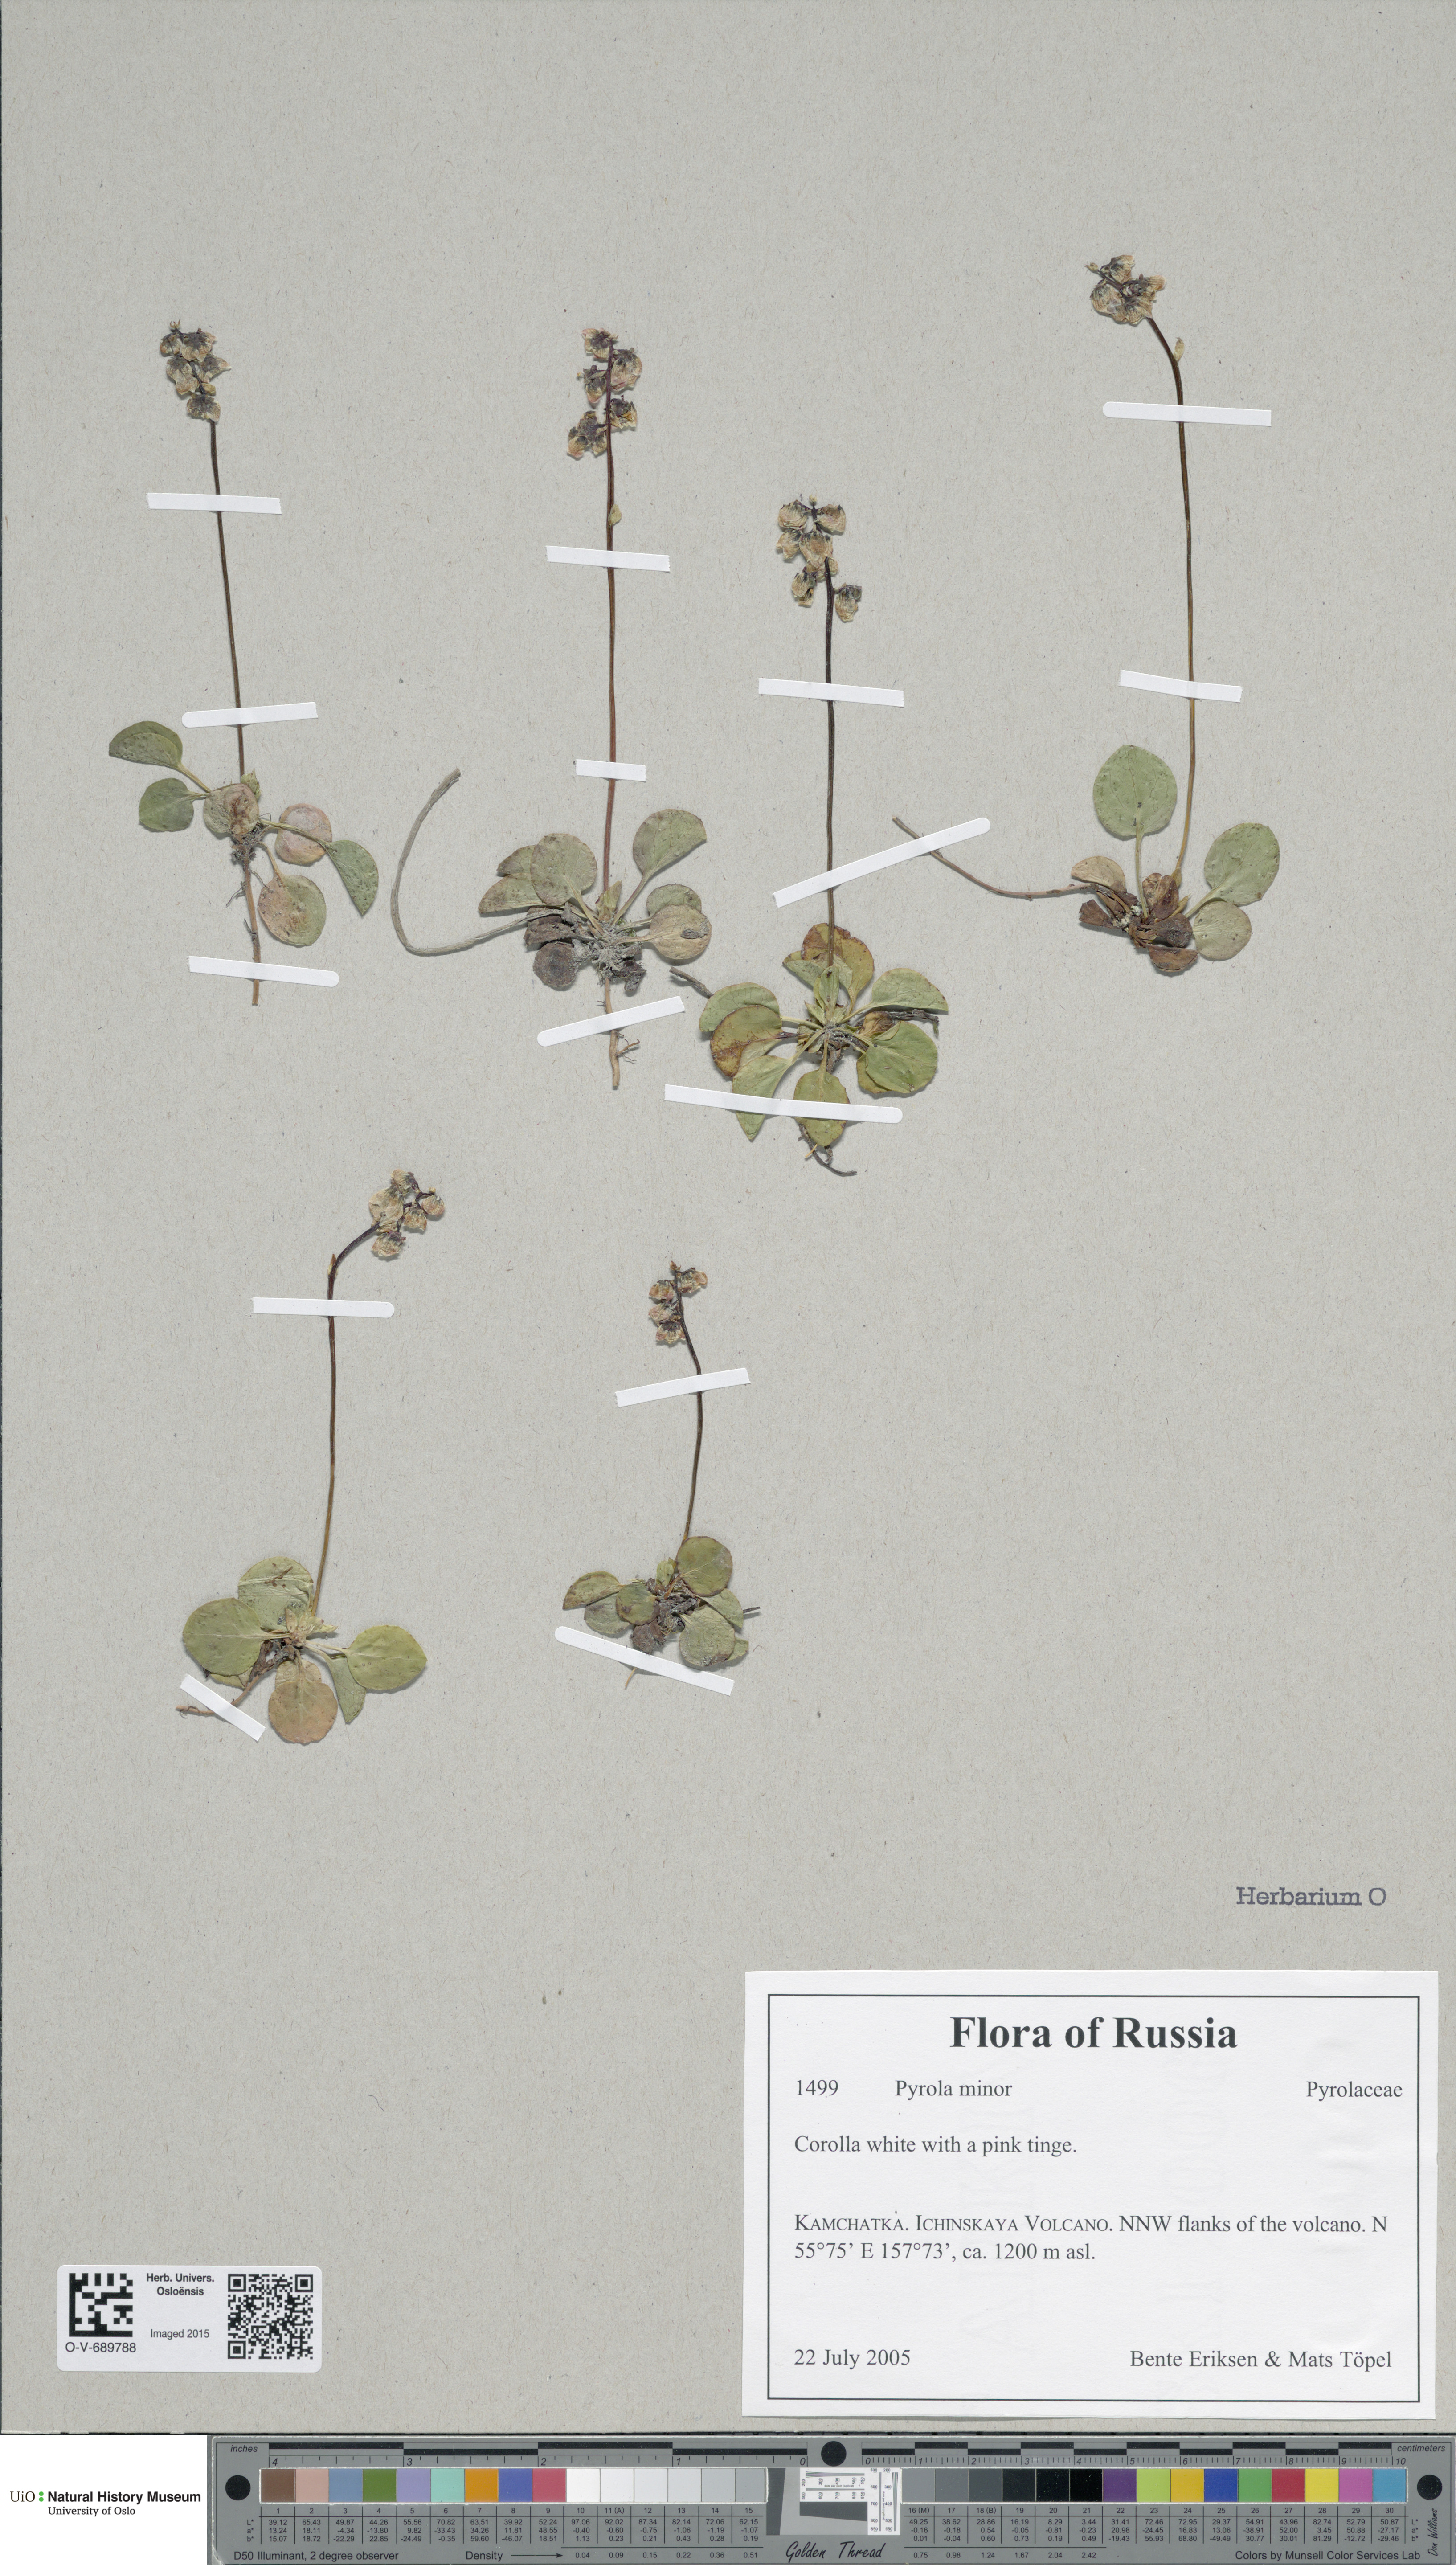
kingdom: Plantae
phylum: Tracheophyta
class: Magnoliopsida
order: Ericales
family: Ericaceae
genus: Pyrola
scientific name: Pyrola minor
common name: Common wintergreen
